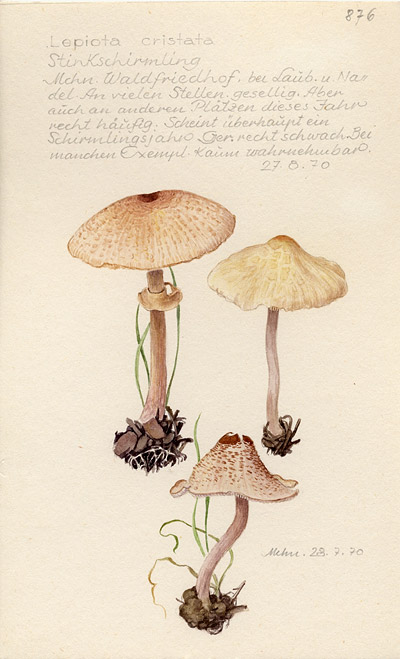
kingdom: Fungi
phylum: Basidiomycota
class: Agaricomycetes
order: Agaricales
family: Agaricaceae
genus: Lepiota
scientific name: Lepiota cristata
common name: Stinking dapperling
